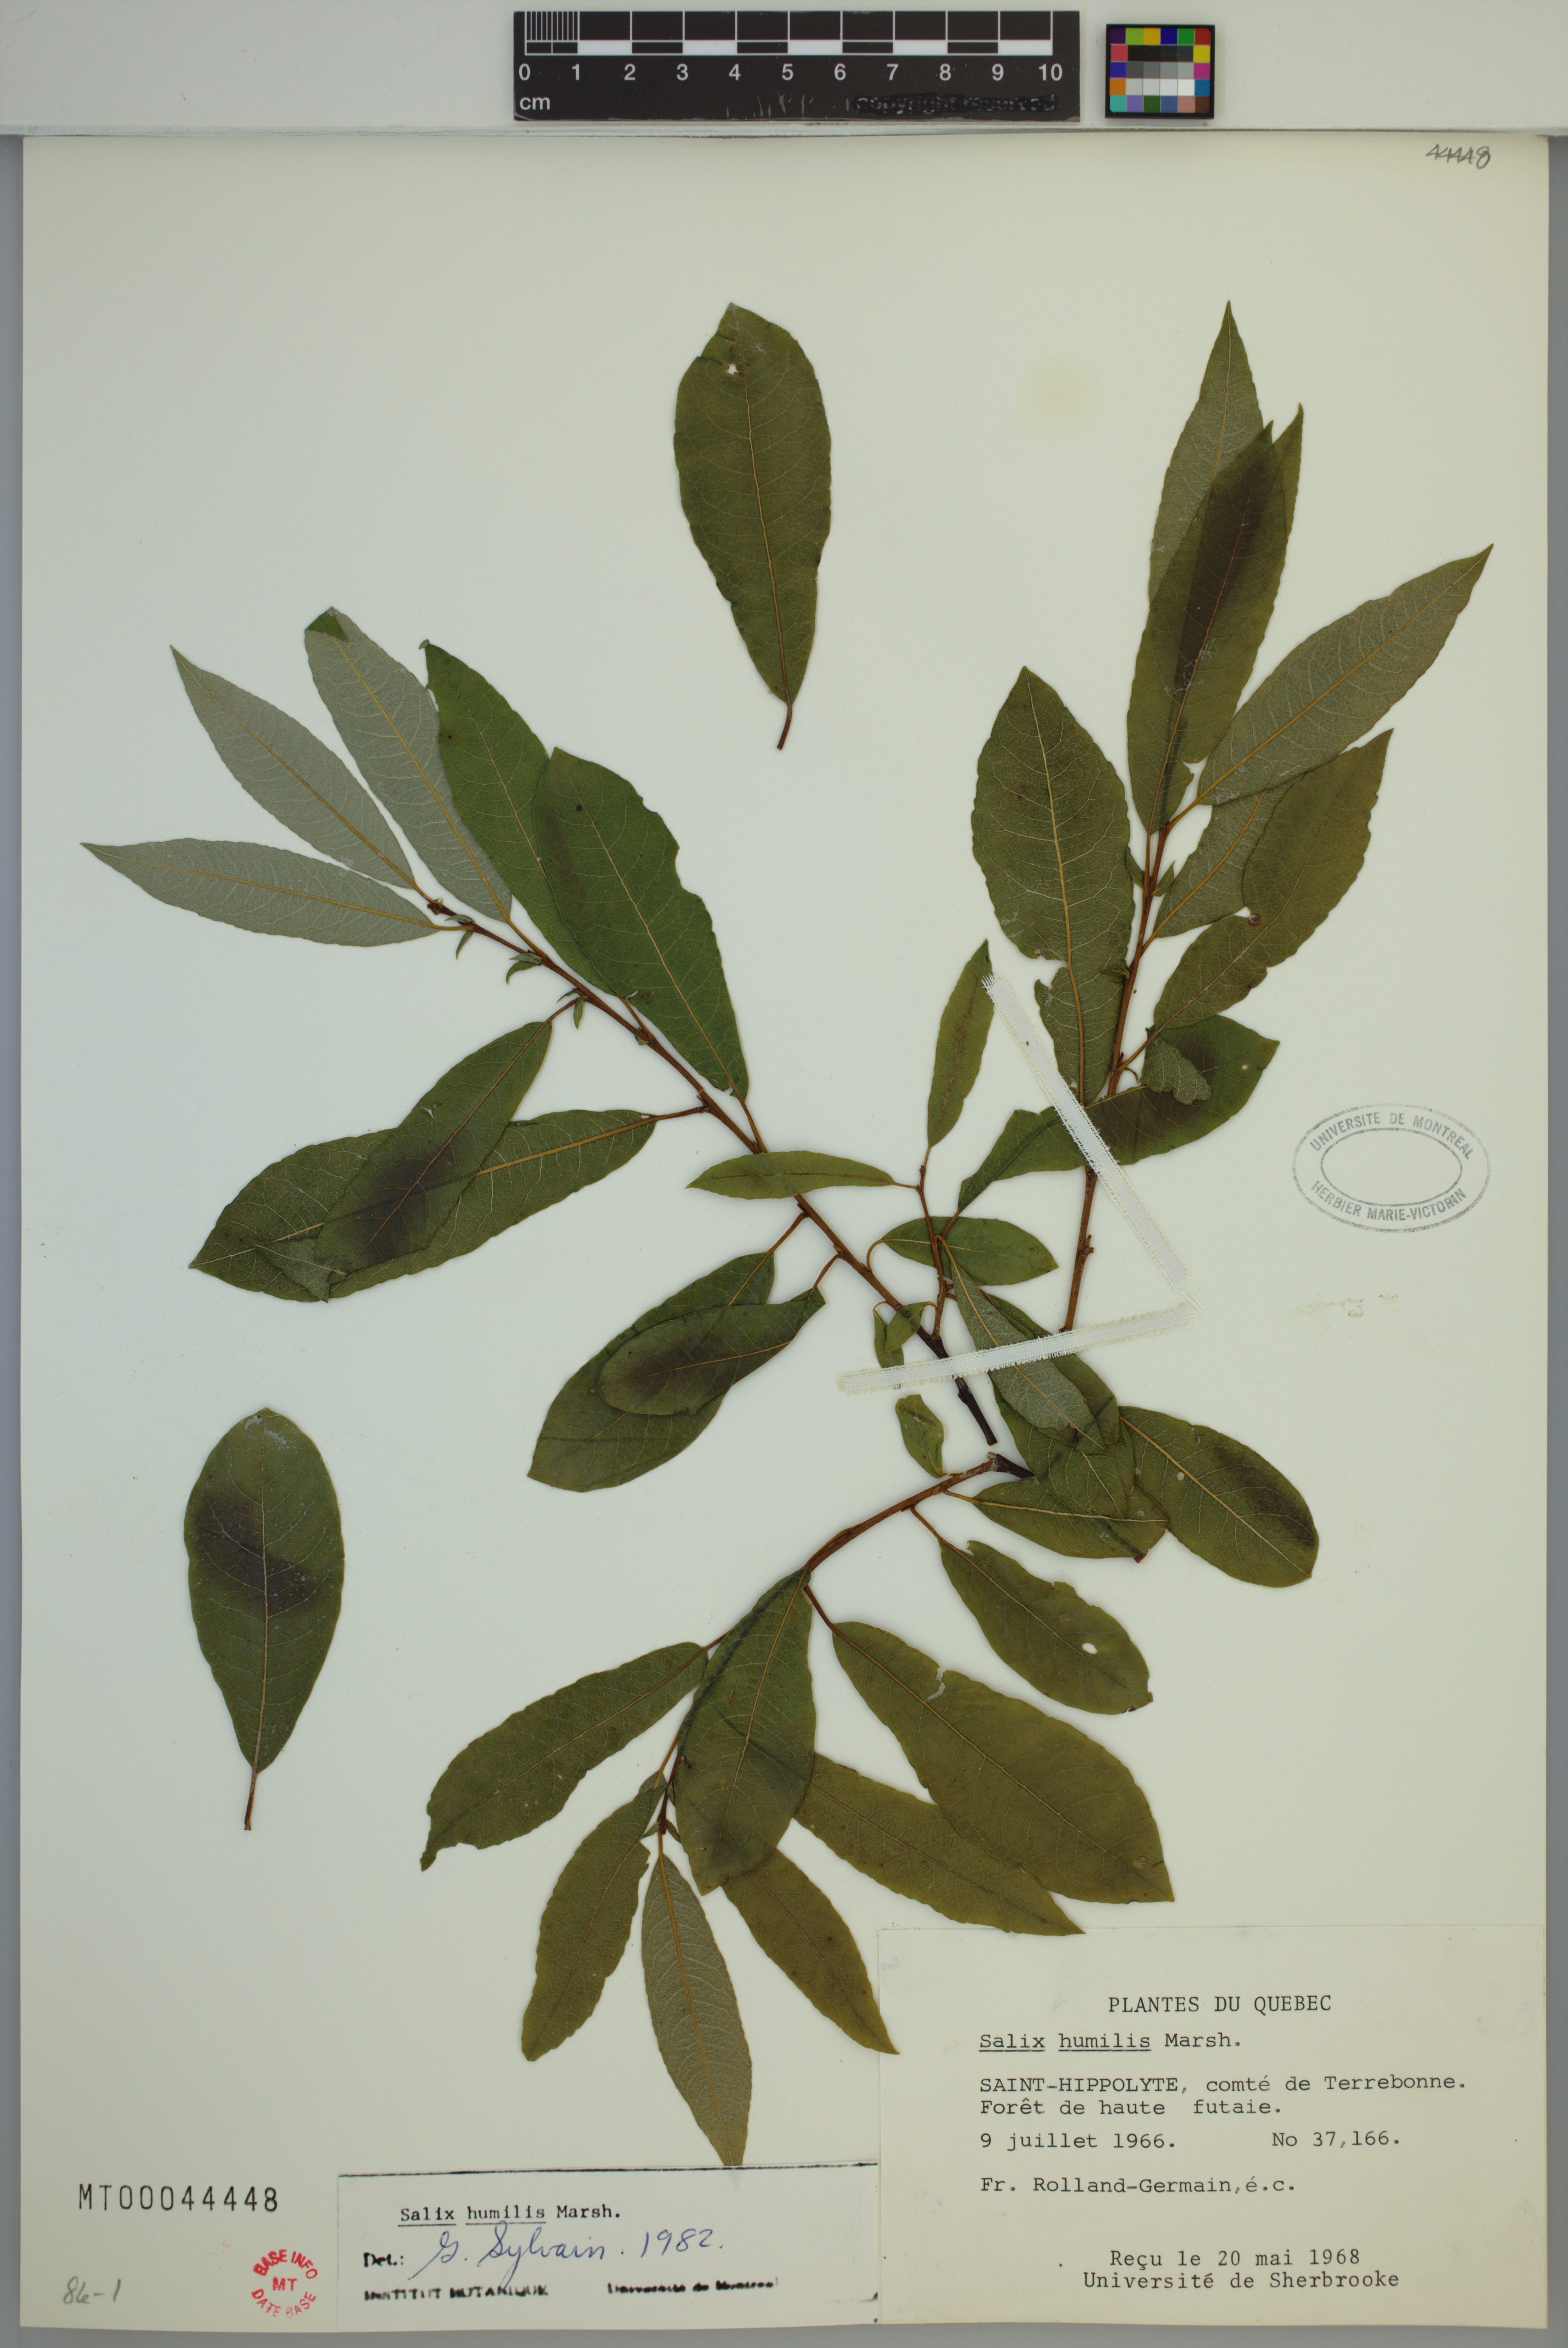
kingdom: Plantae
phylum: Tracheophyta
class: Magnoliopsida
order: Malpighiales
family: Salicaceae
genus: Salix
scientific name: Salix humilis
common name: Prairie willow
